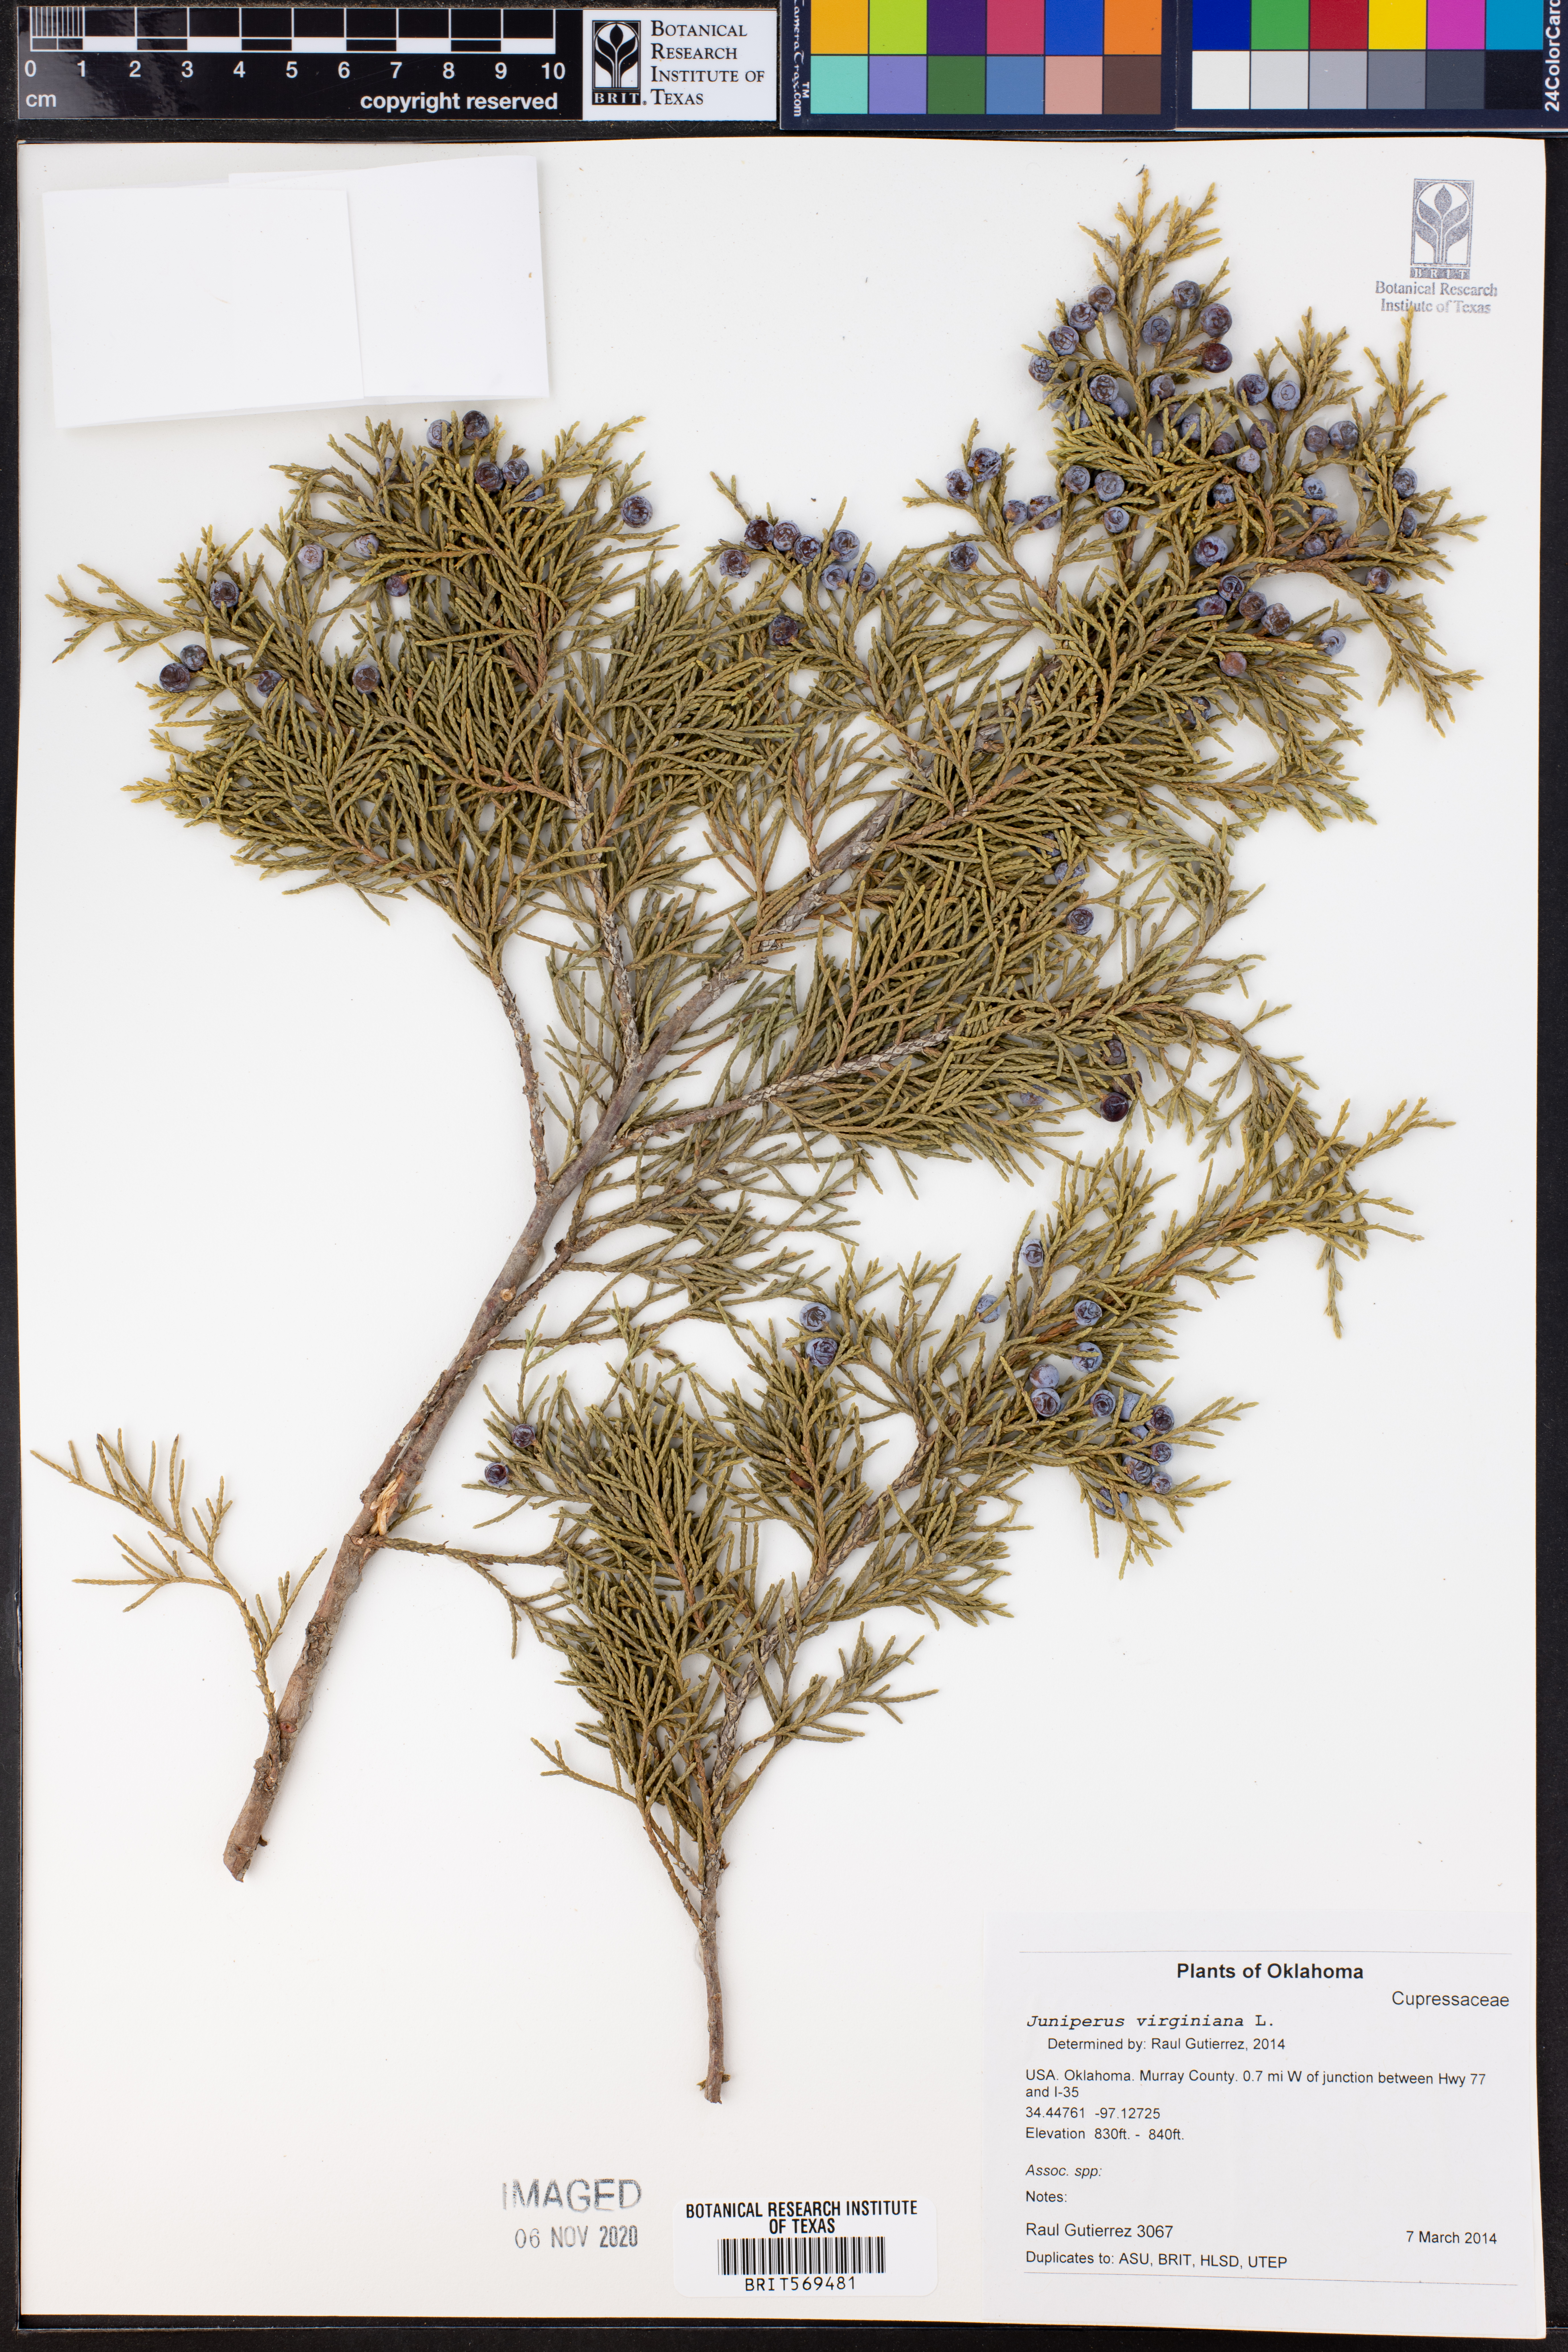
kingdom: Plantae
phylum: Tracheophyta
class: Pinopsida
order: Pinales
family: Cupressaceae
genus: Juniperus
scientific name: Juniperus virginiana
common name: Red juniper
